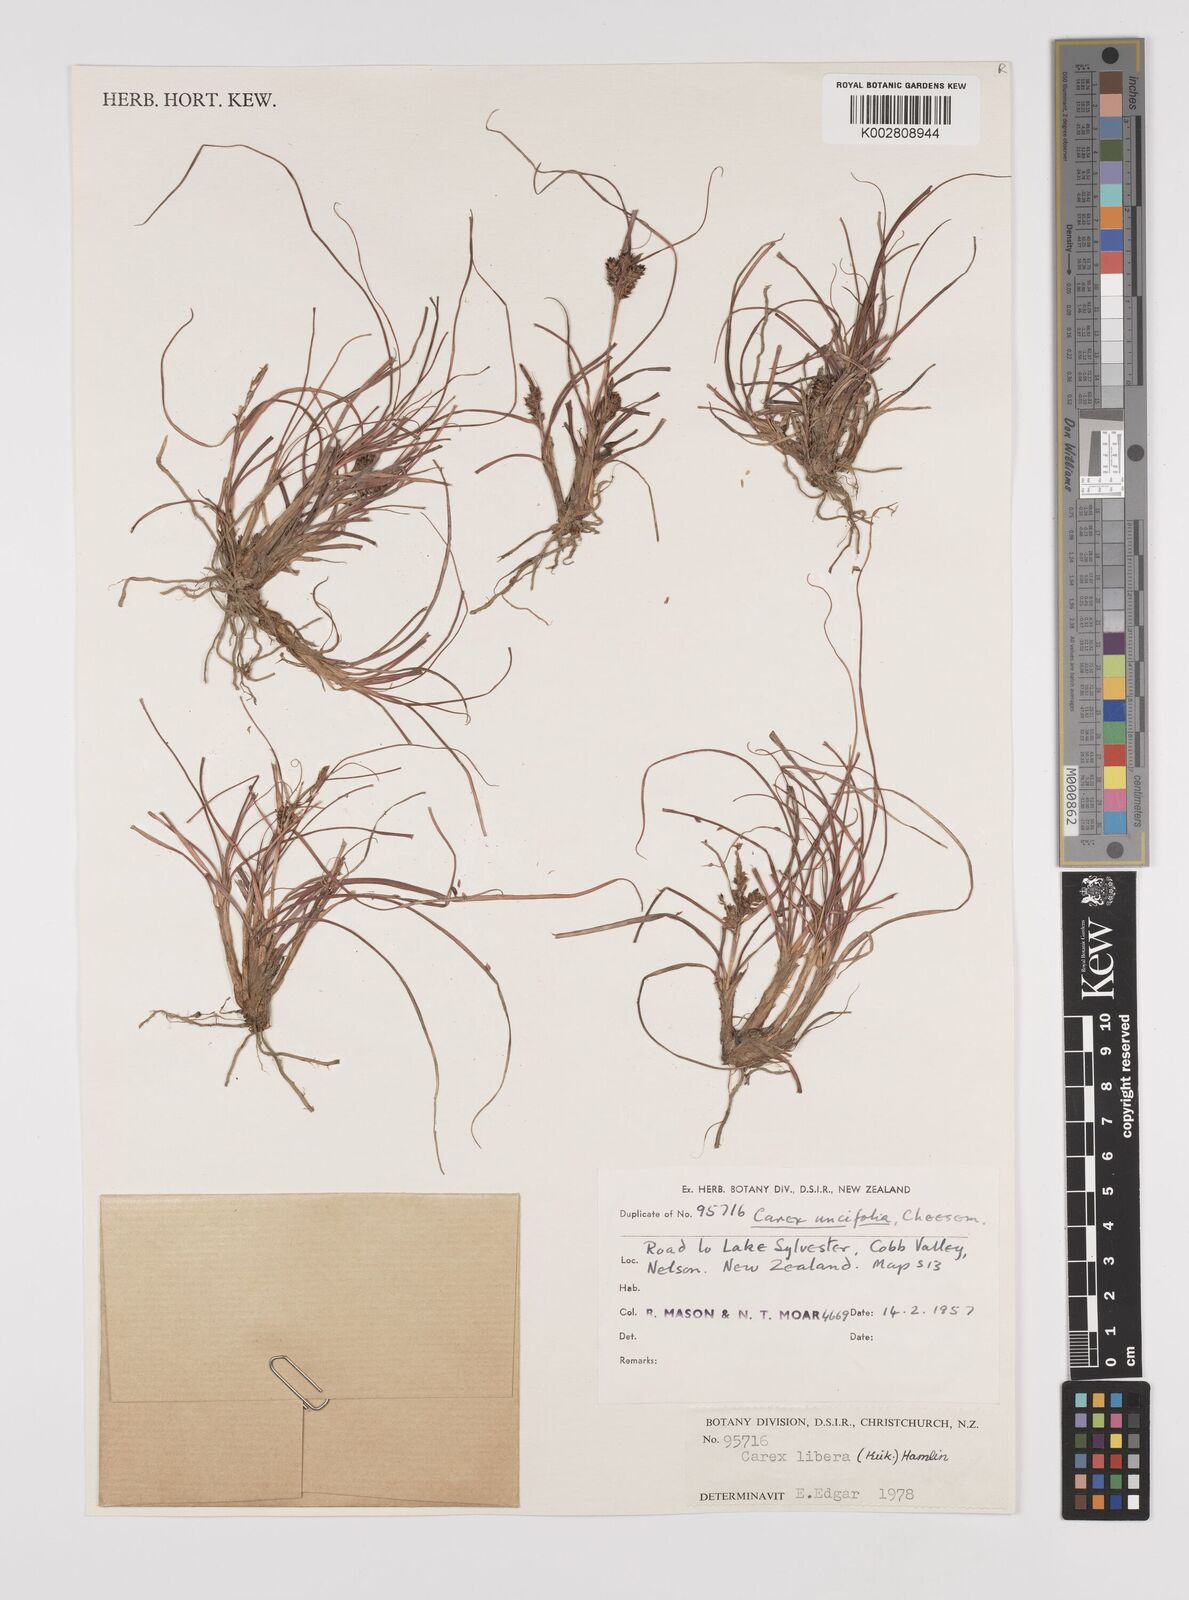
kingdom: Plantae
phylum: Tracheophyta
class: Liliopsida
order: Poales
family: Cyperaceae
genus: Carex
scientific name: Carex libera
